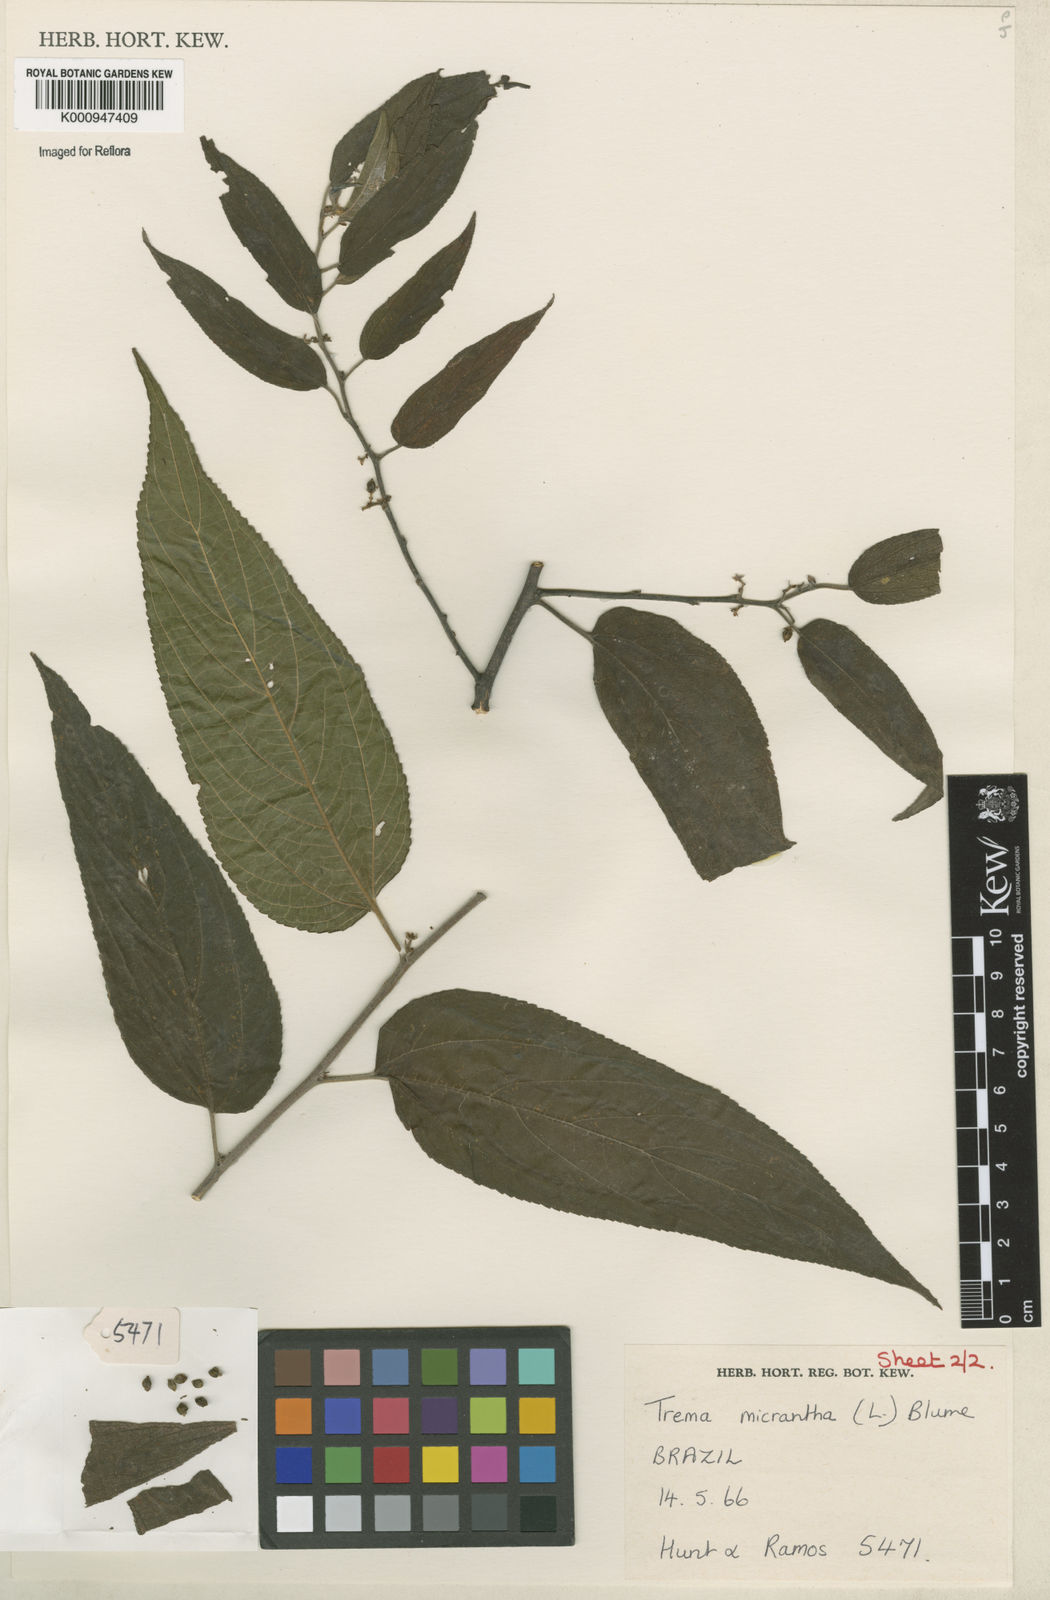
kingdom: Plantae
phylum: Tracheophyta
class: Magnoliopsida
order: Rosales
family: Cannabaceae
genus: Trema
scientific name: Trema micranthum
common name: Jamaican nettletree
